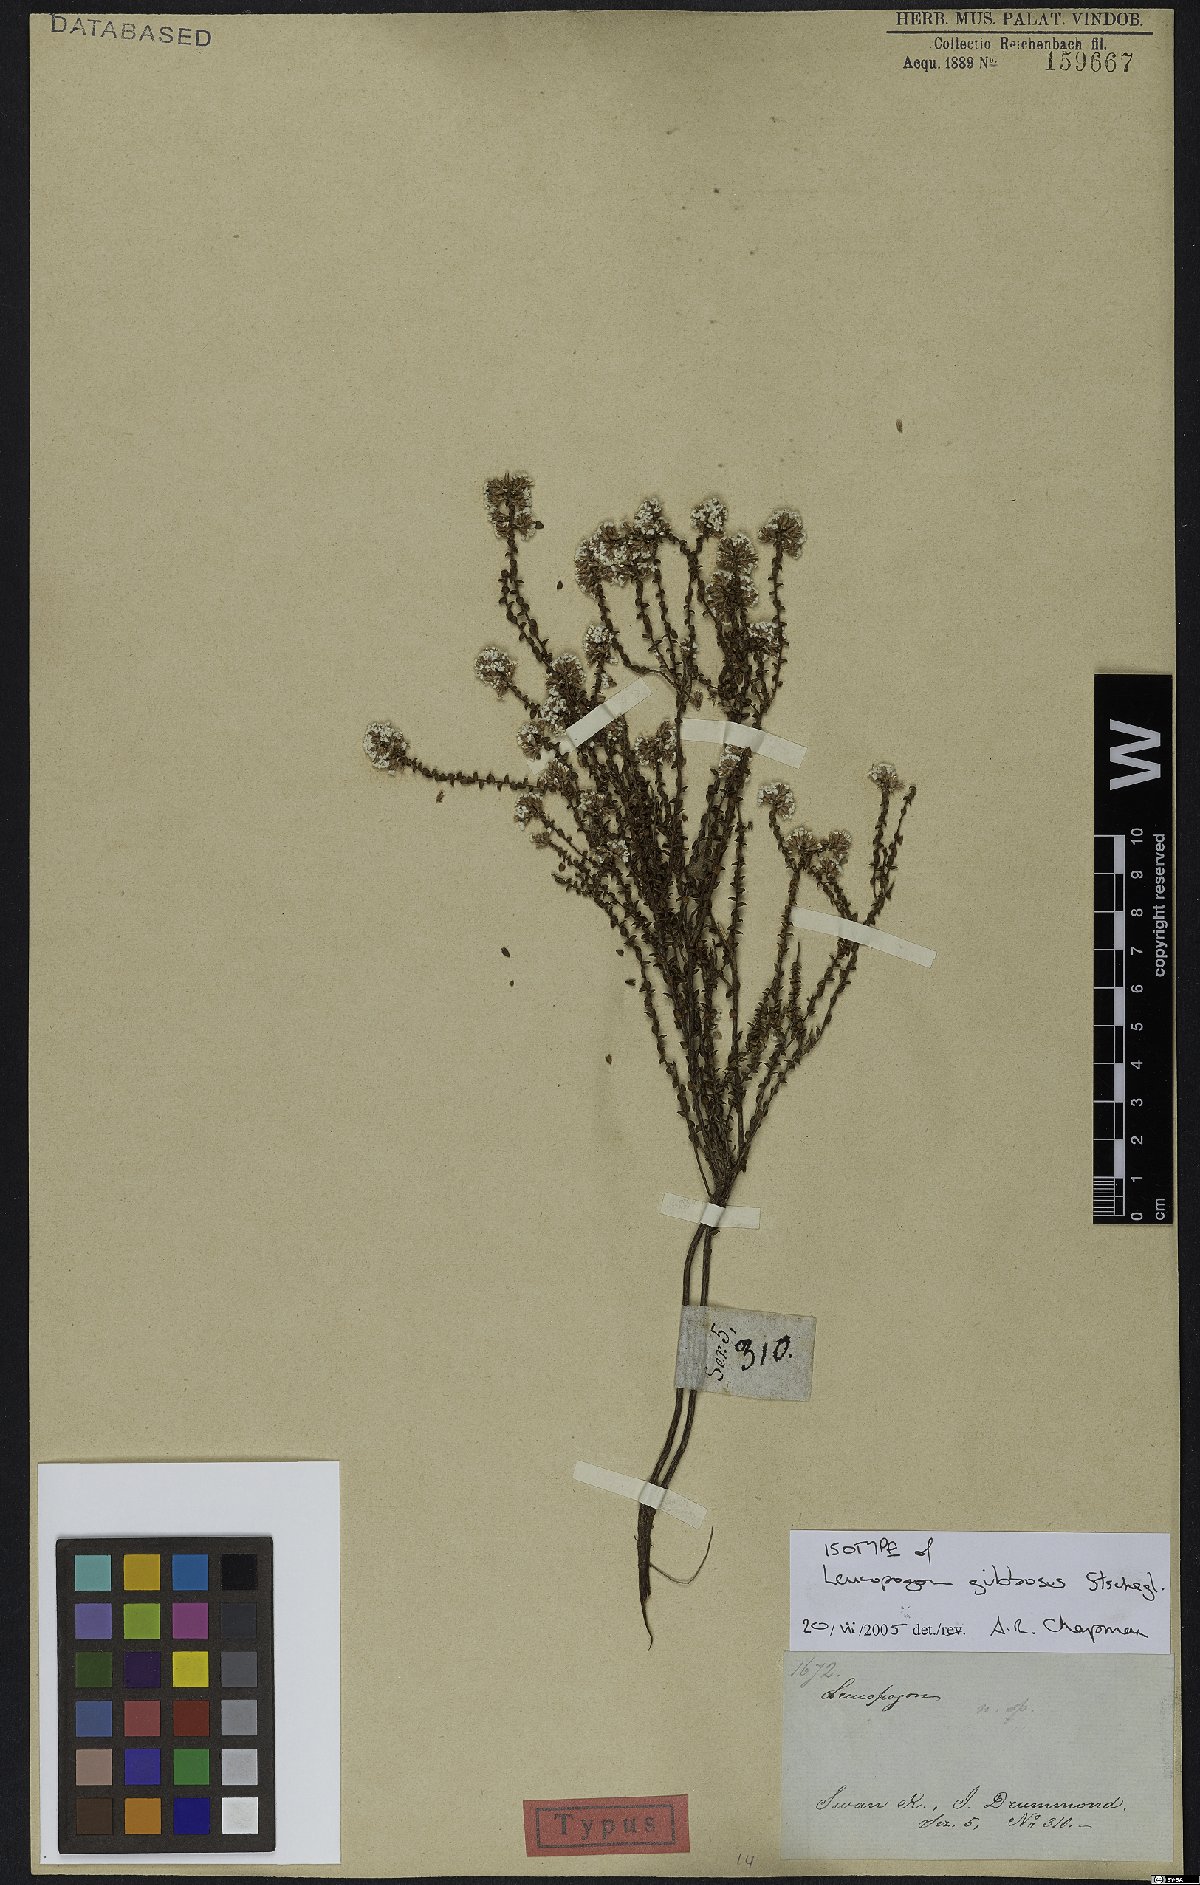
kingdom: Plantae
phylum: Tracheophyta
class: Magnoliopsida
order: Ericales
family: Ericaceae
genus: Leucopogon
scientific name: Leucopogon gibbosus
